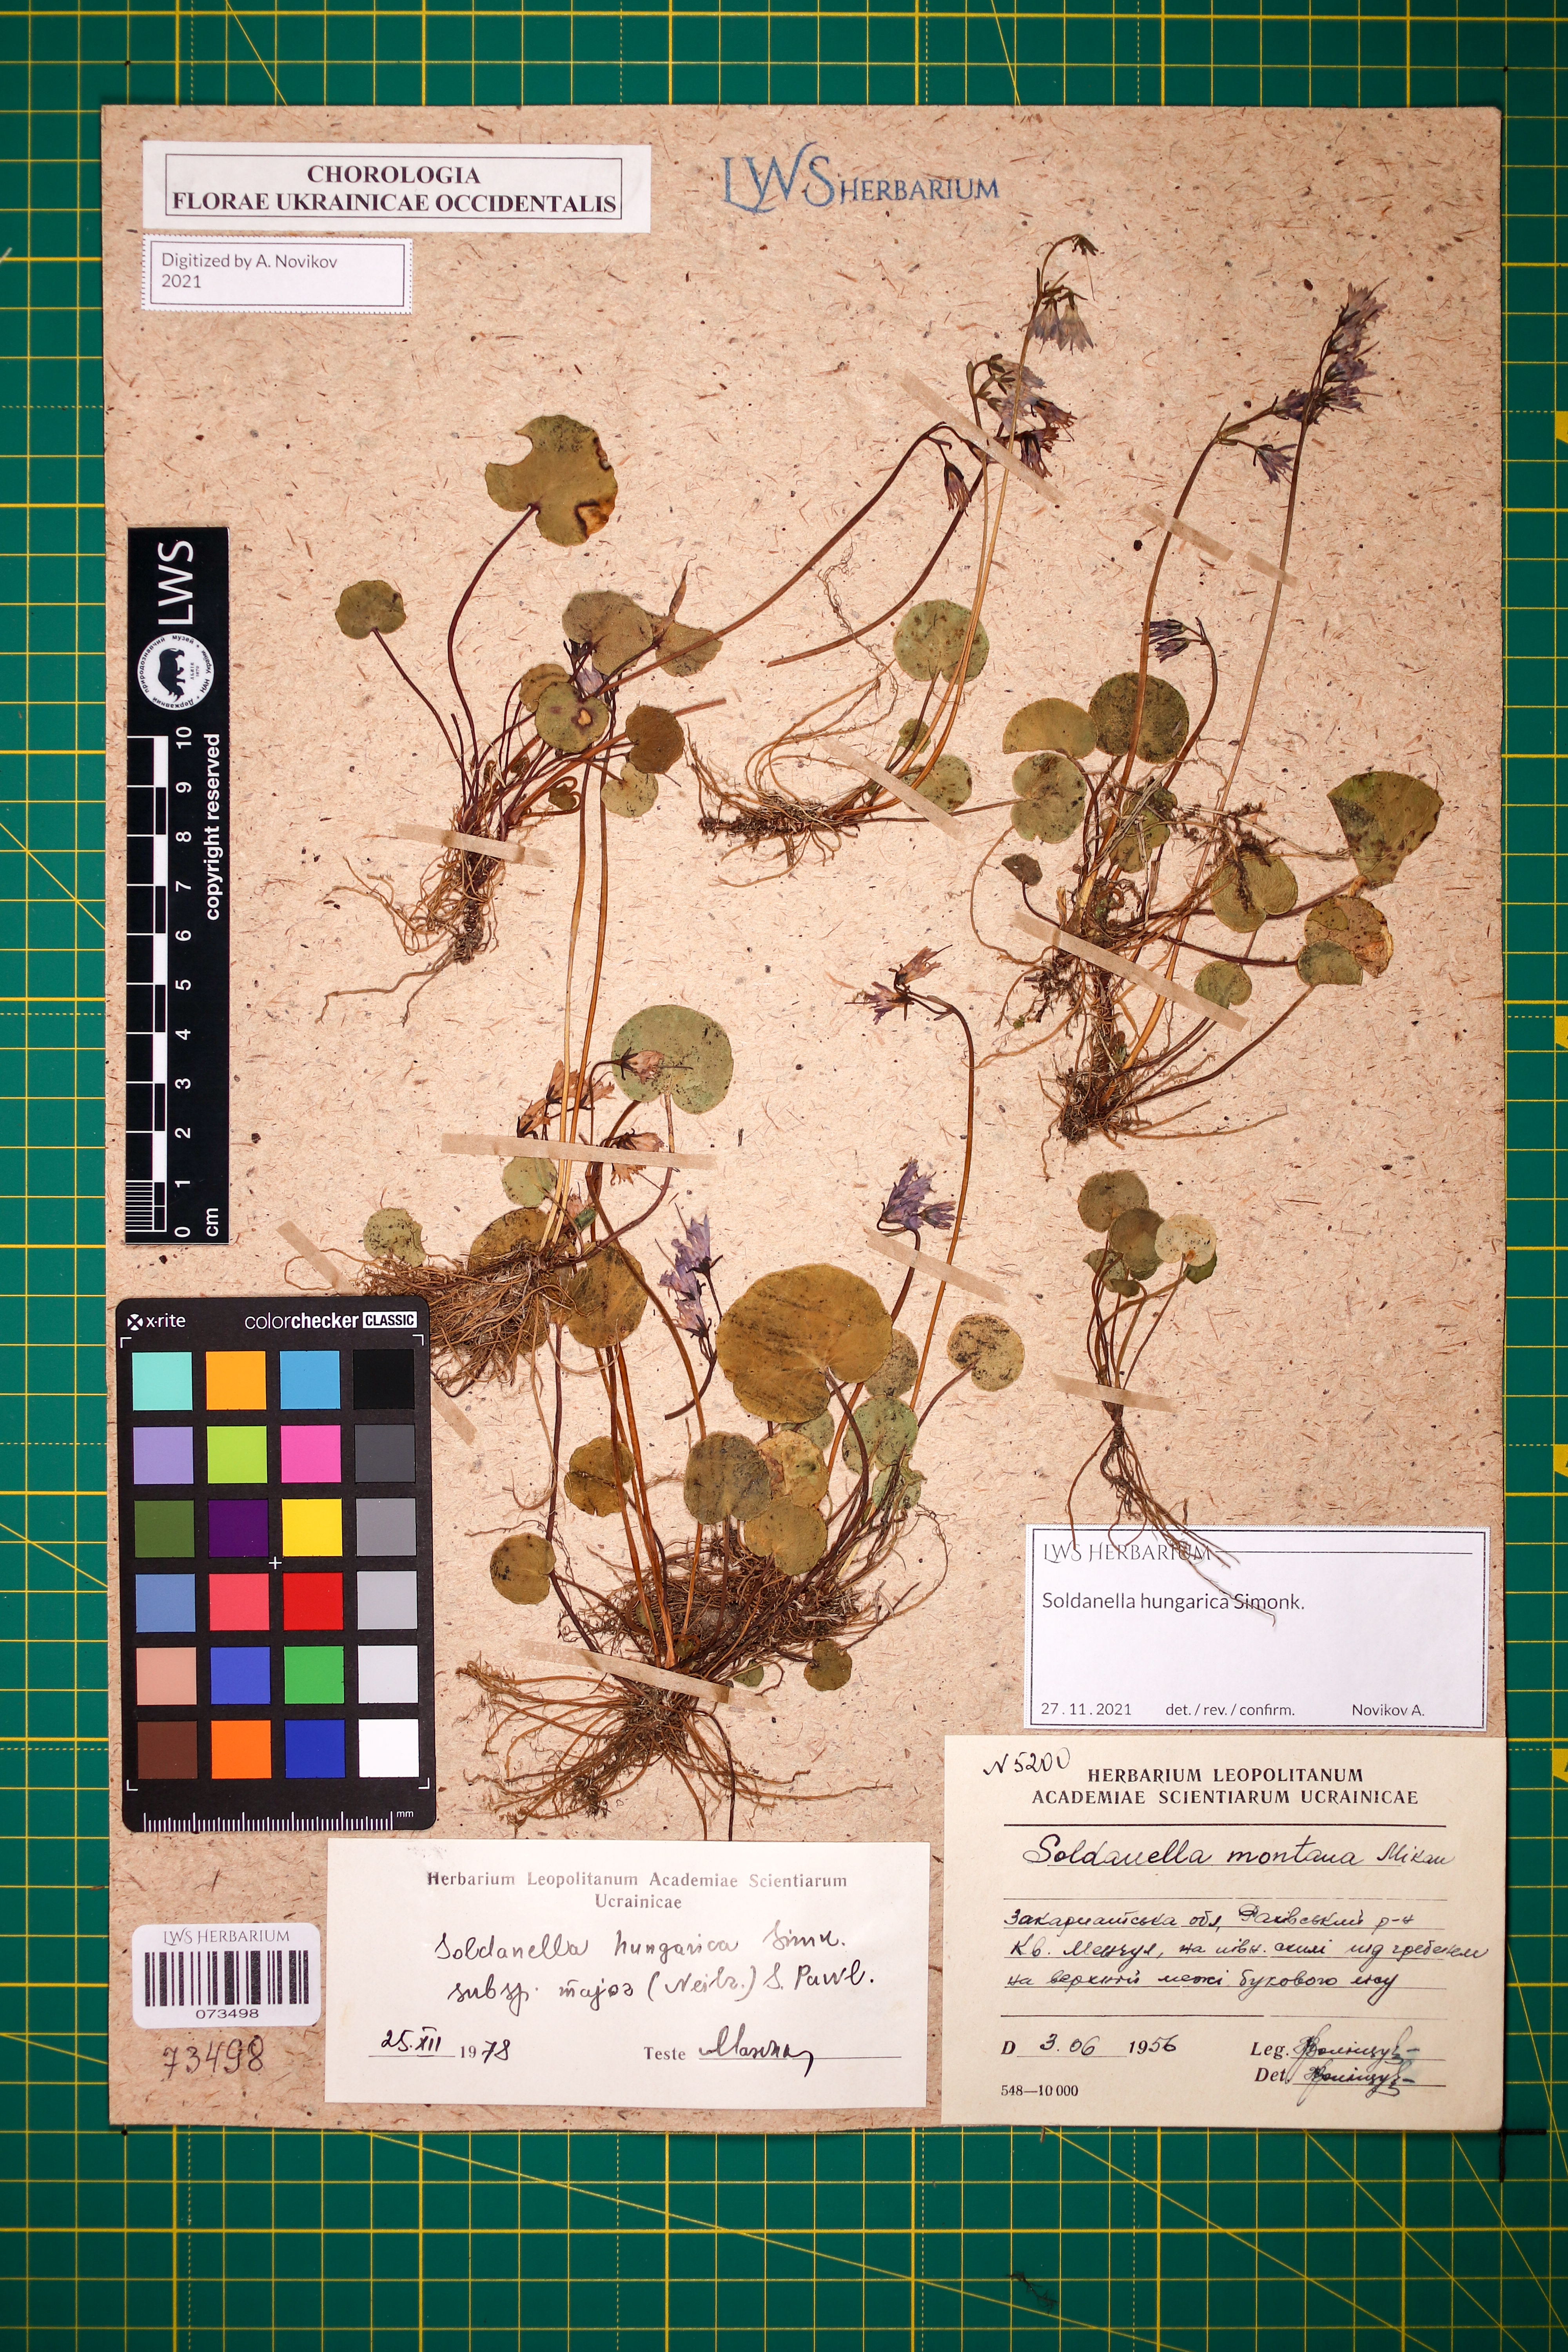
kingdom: Plantae
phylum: Tracheophyta
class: Magnoliopsida
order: Ericales
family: Primulaceae
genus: Soldanella
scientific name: Soldanella hungarica
